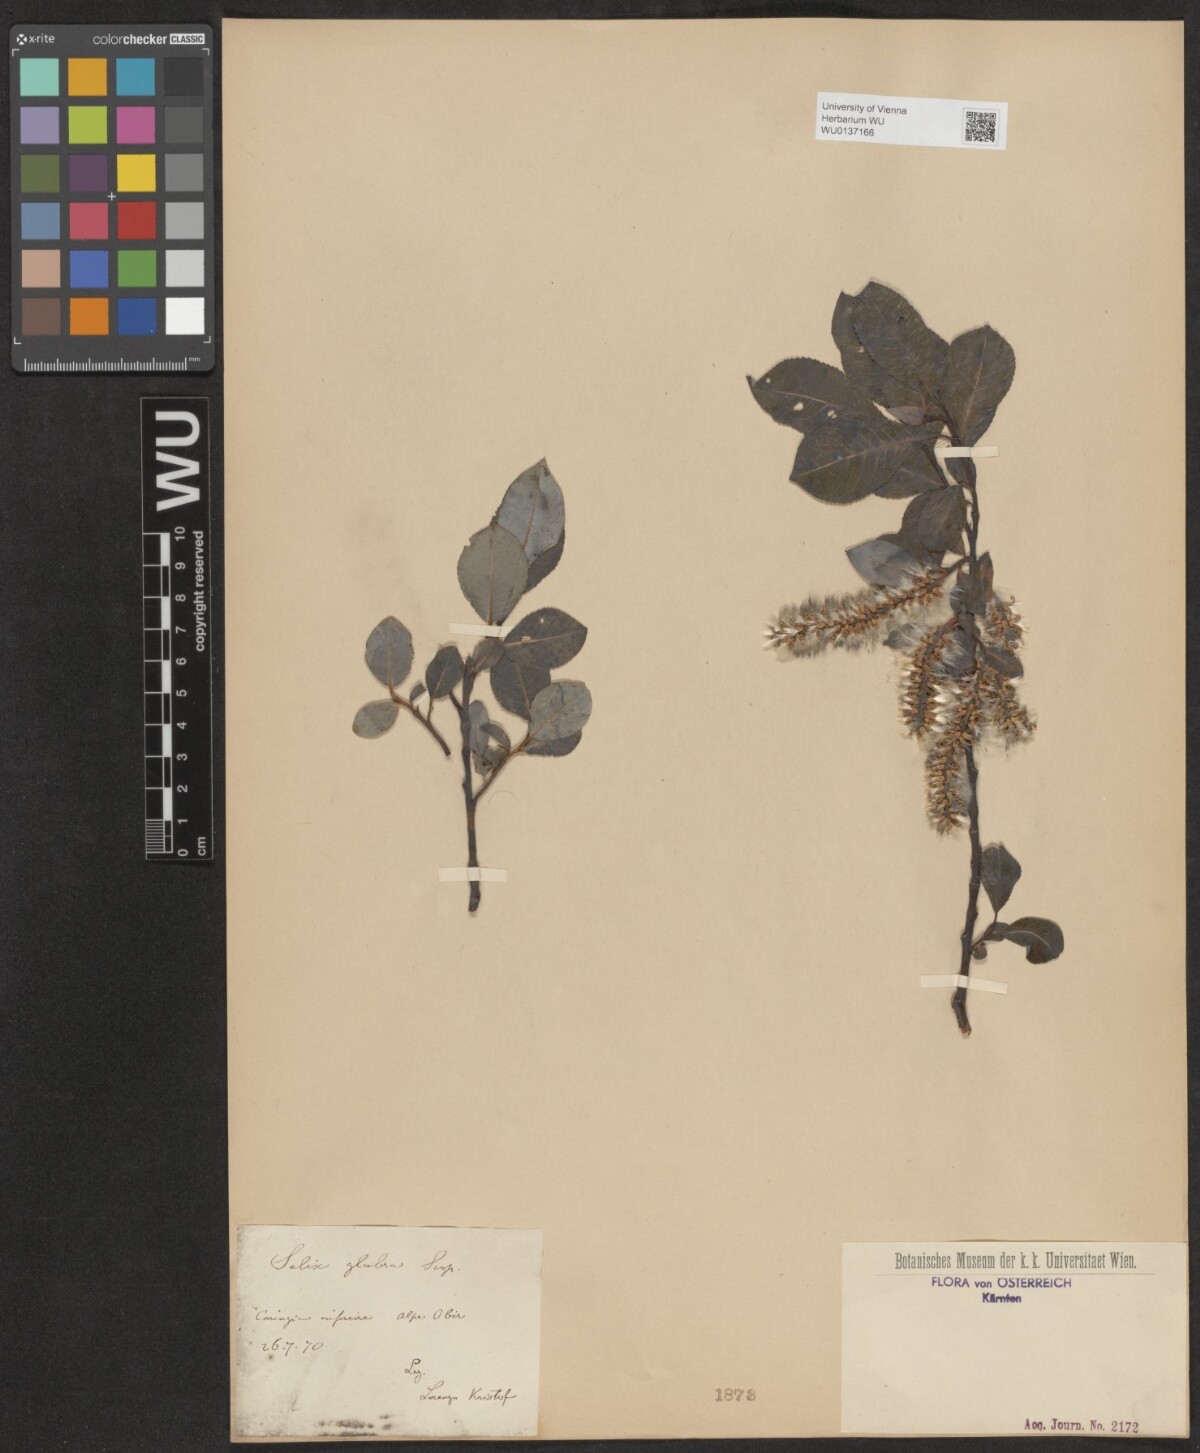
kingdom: Plantae
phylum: Tracheophyta
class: Magnoliopsida
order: Malpighiales
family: Salicaceae
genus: Salix
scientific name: Salix glabra
